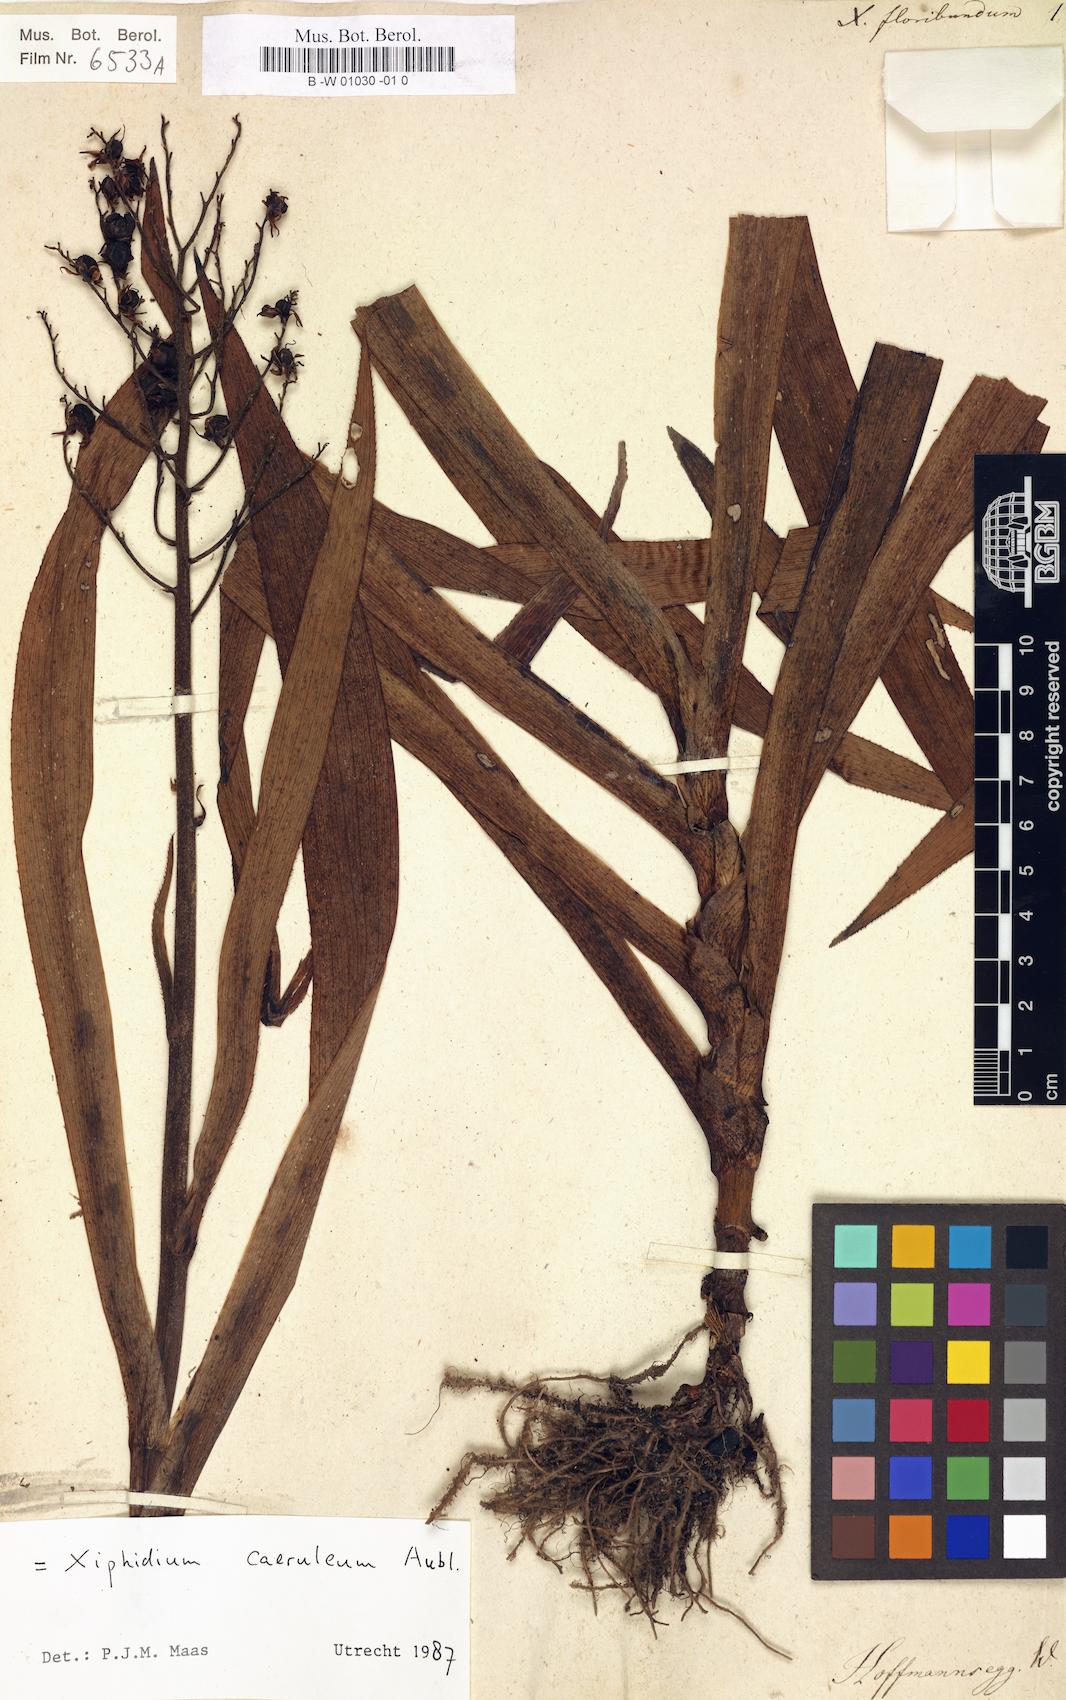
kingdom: Plantae
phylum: Tracheophyta
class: Liliopsida
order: Commelinales
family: Haemodoraceae
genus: Xiphidium
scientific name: Xiphidium caeruleum
